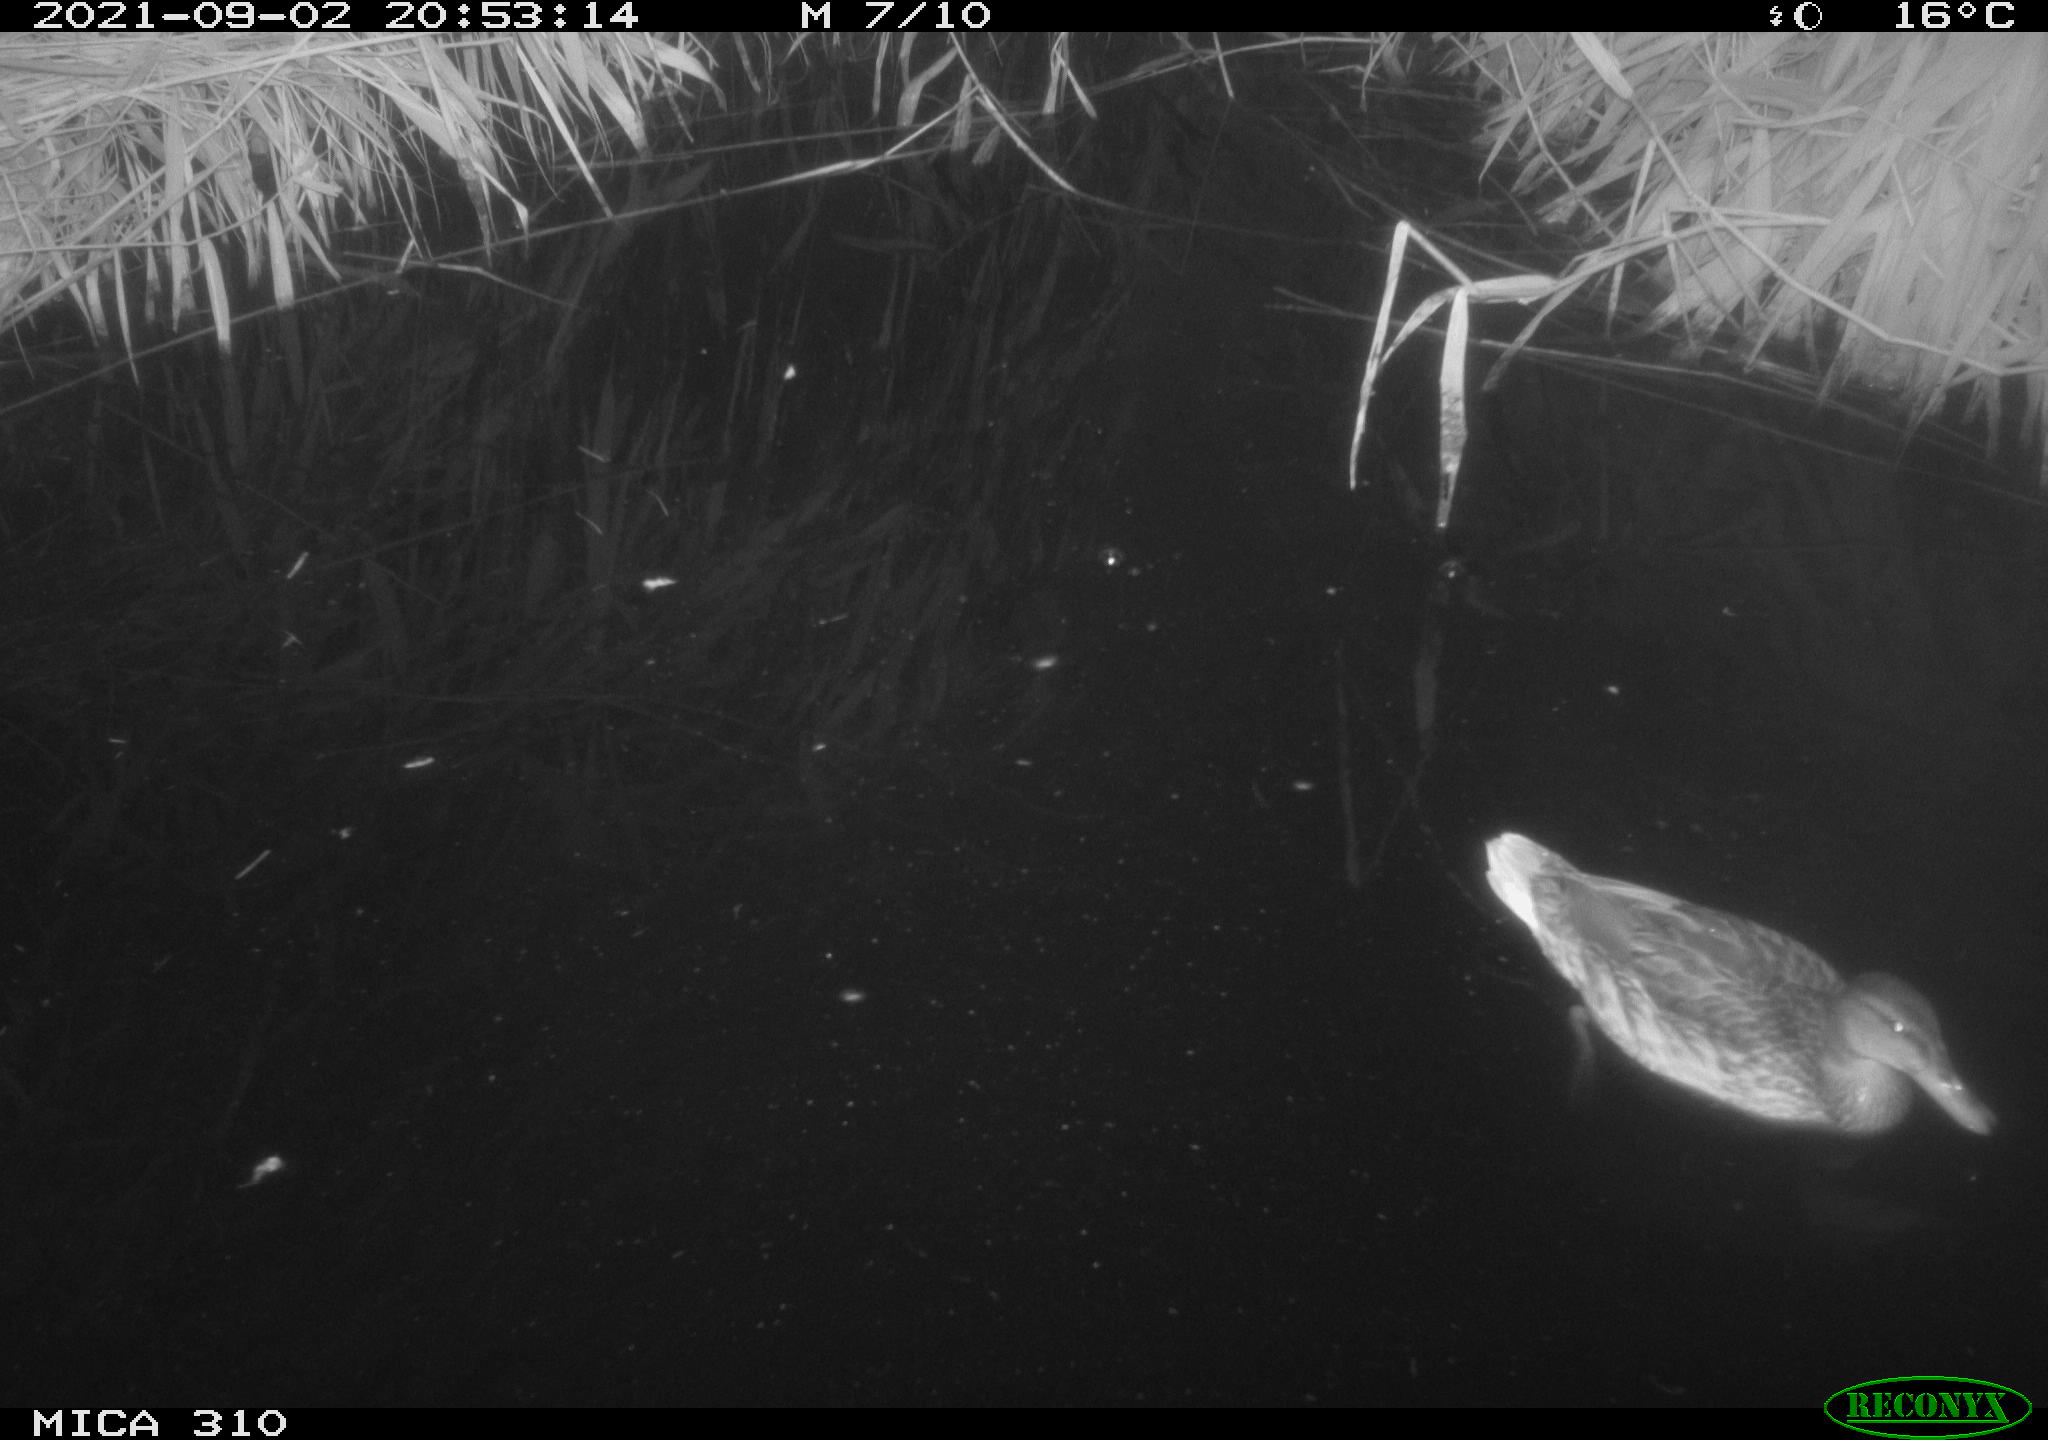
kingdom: Animalia
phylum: Chordata
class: Aves
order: Anseriformes
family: Anatidae
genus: Anas
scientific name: Anas platyrhynchos
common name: Mallard
